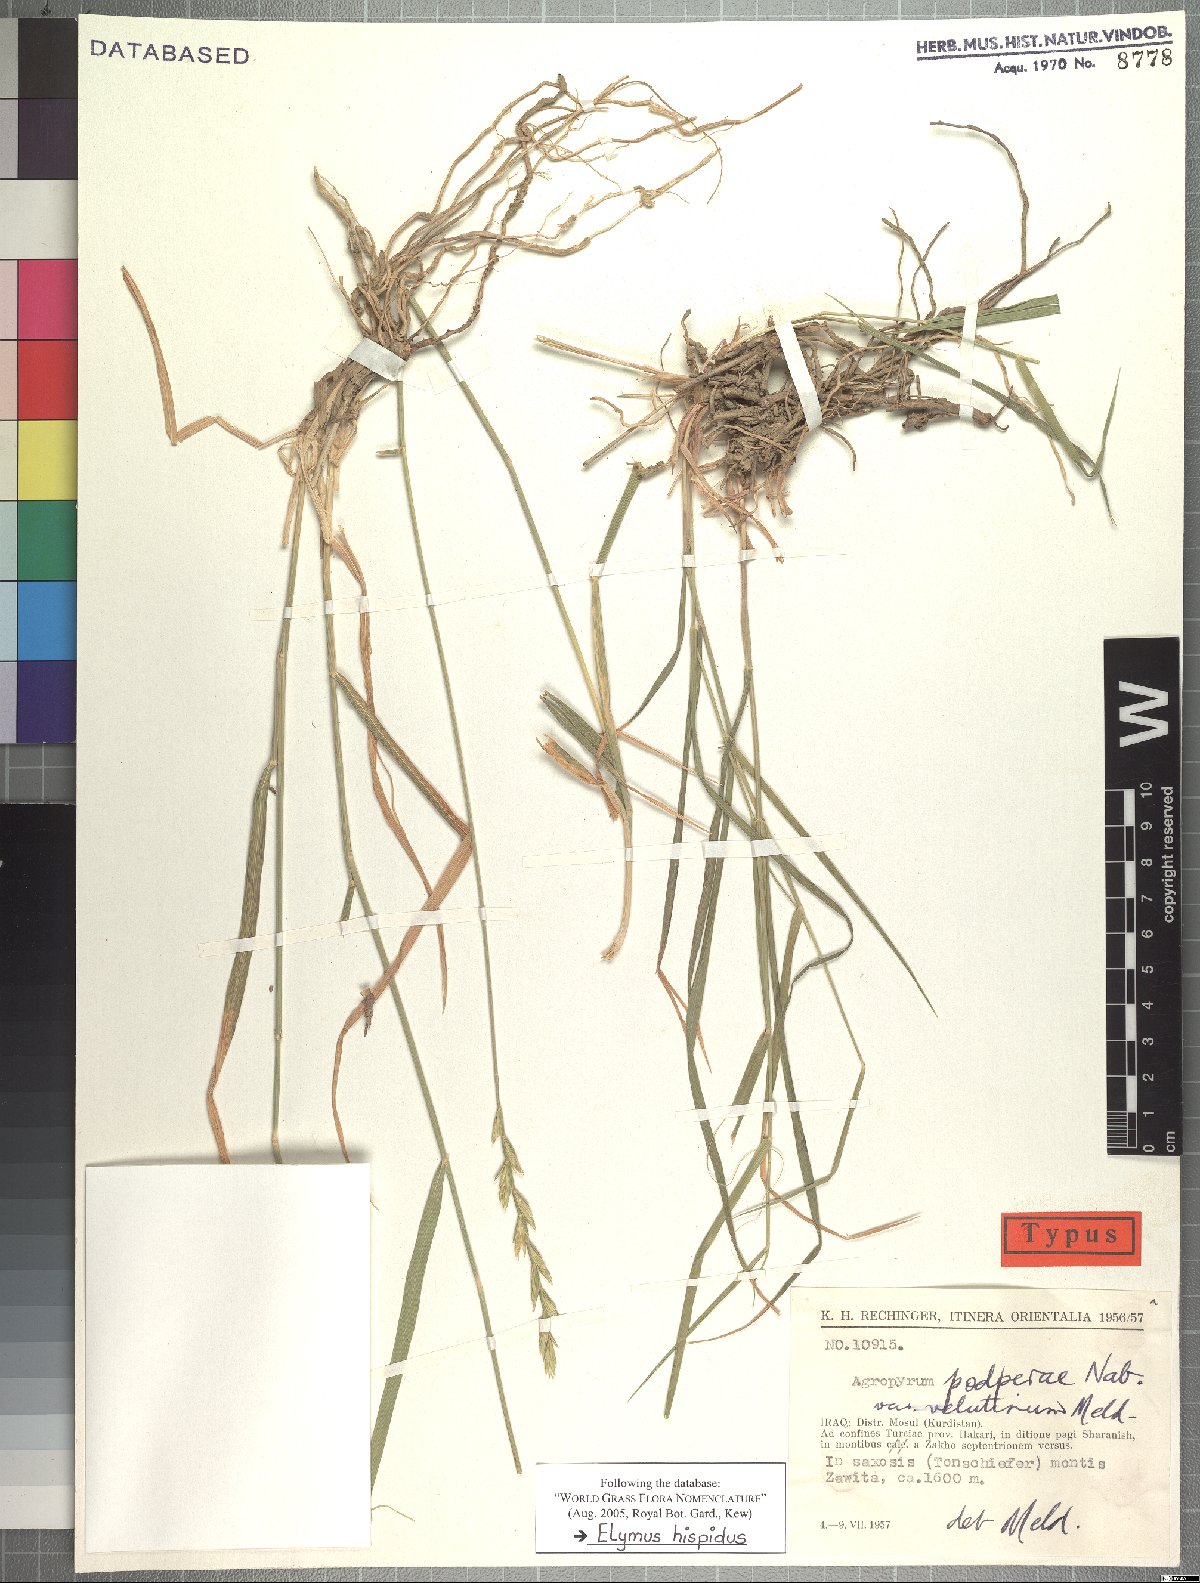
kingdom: Plantae
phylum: Tracheophyta
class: Liliopsida
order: Poales
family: Poaceae
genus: Thinopyrum
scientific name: Thinopyrum intermedium
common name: Intermediate wheatgrass
